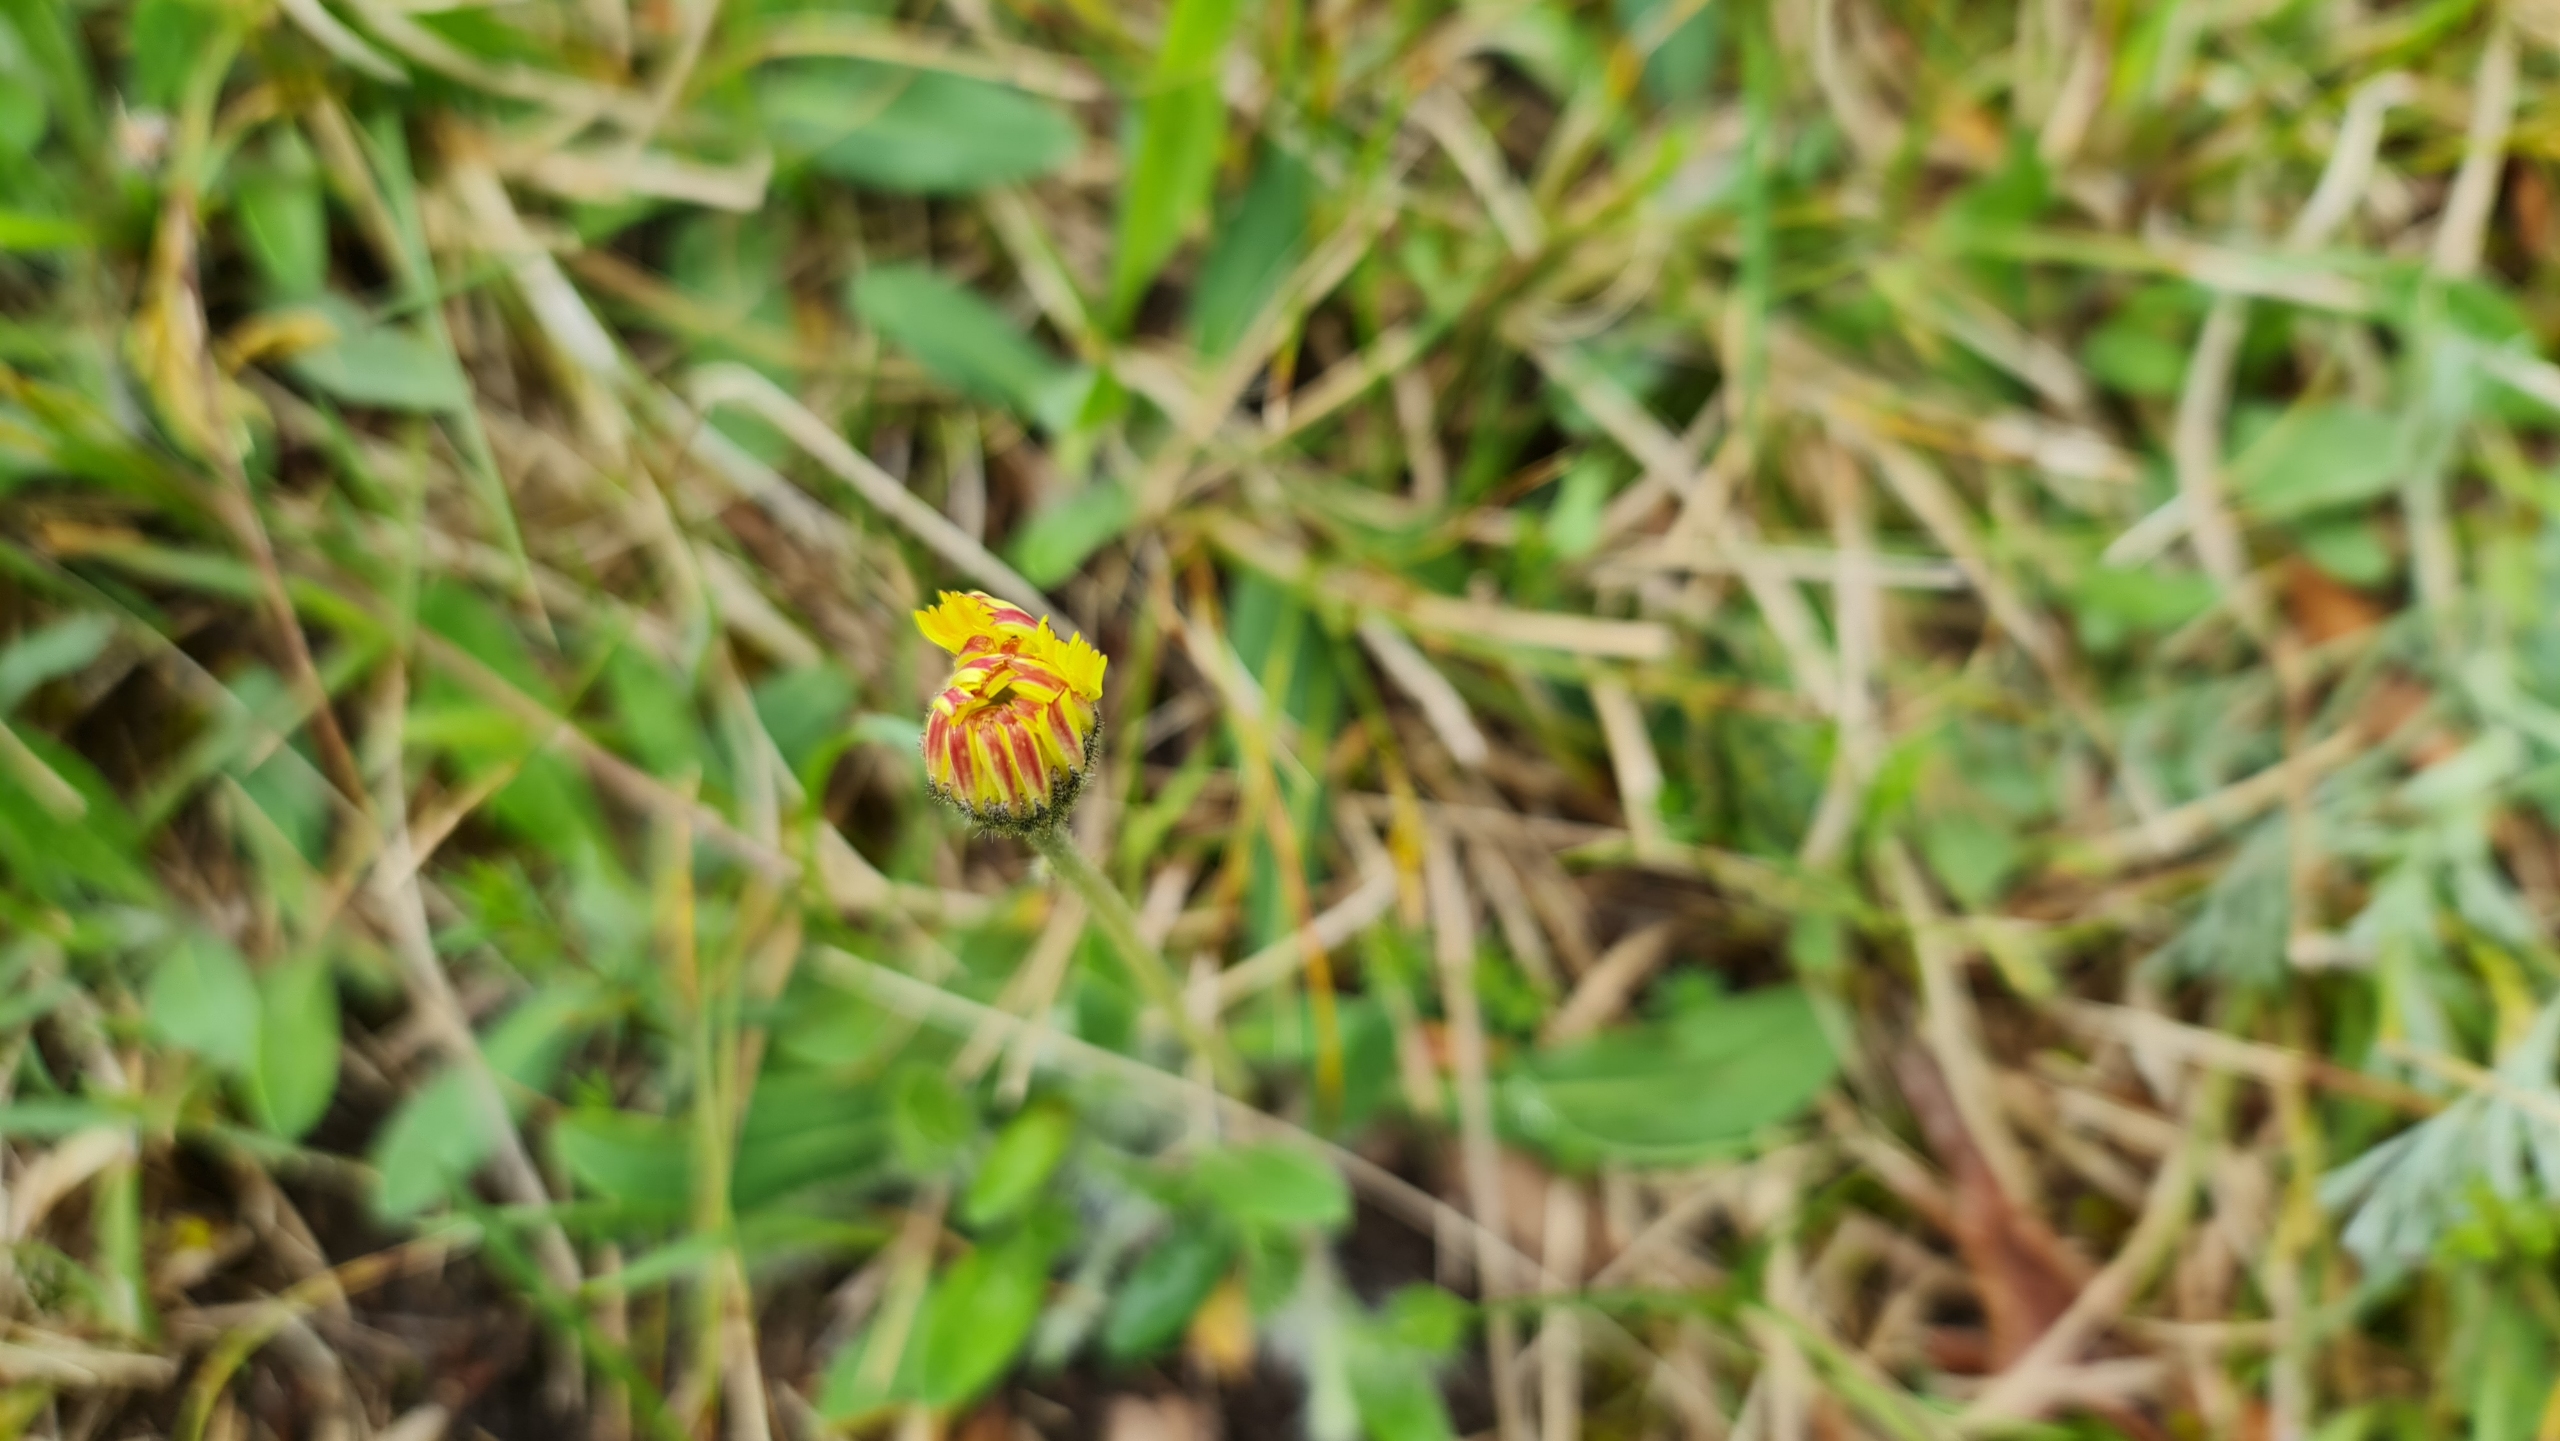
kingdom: Plantae
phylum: Tracheophyta
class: Magnoliopsida
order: Asterales
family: Asteraceae
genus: Pilosella
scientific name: Pilosella officinarum
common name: Håret høgeurt
